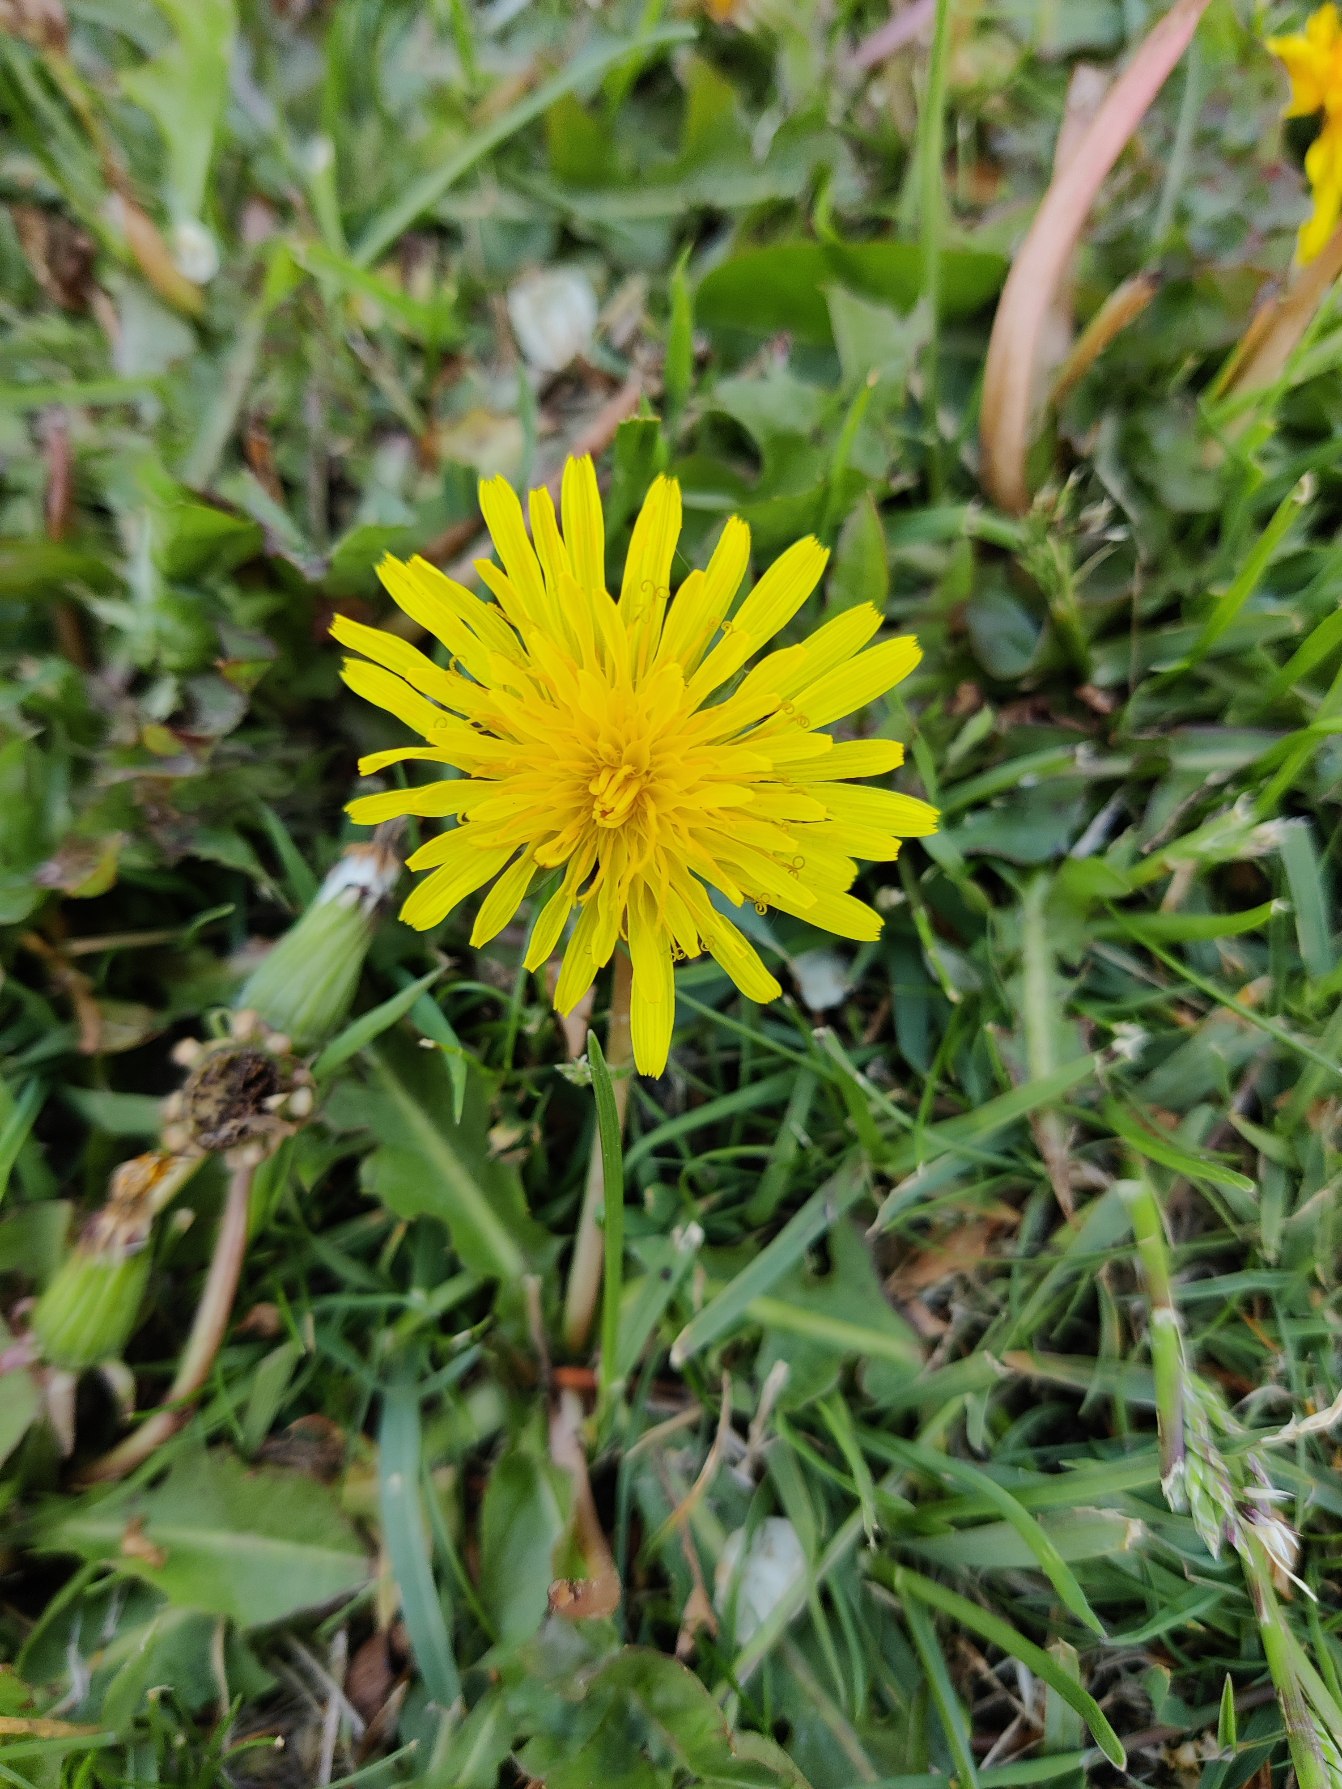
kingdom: Plantae
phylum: Tracheophyta
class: Magnoliopsida
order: Asterales
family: Asteraceae
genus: Taraxacum
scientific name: Taraxacum
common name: Mælkebøtteslægten
